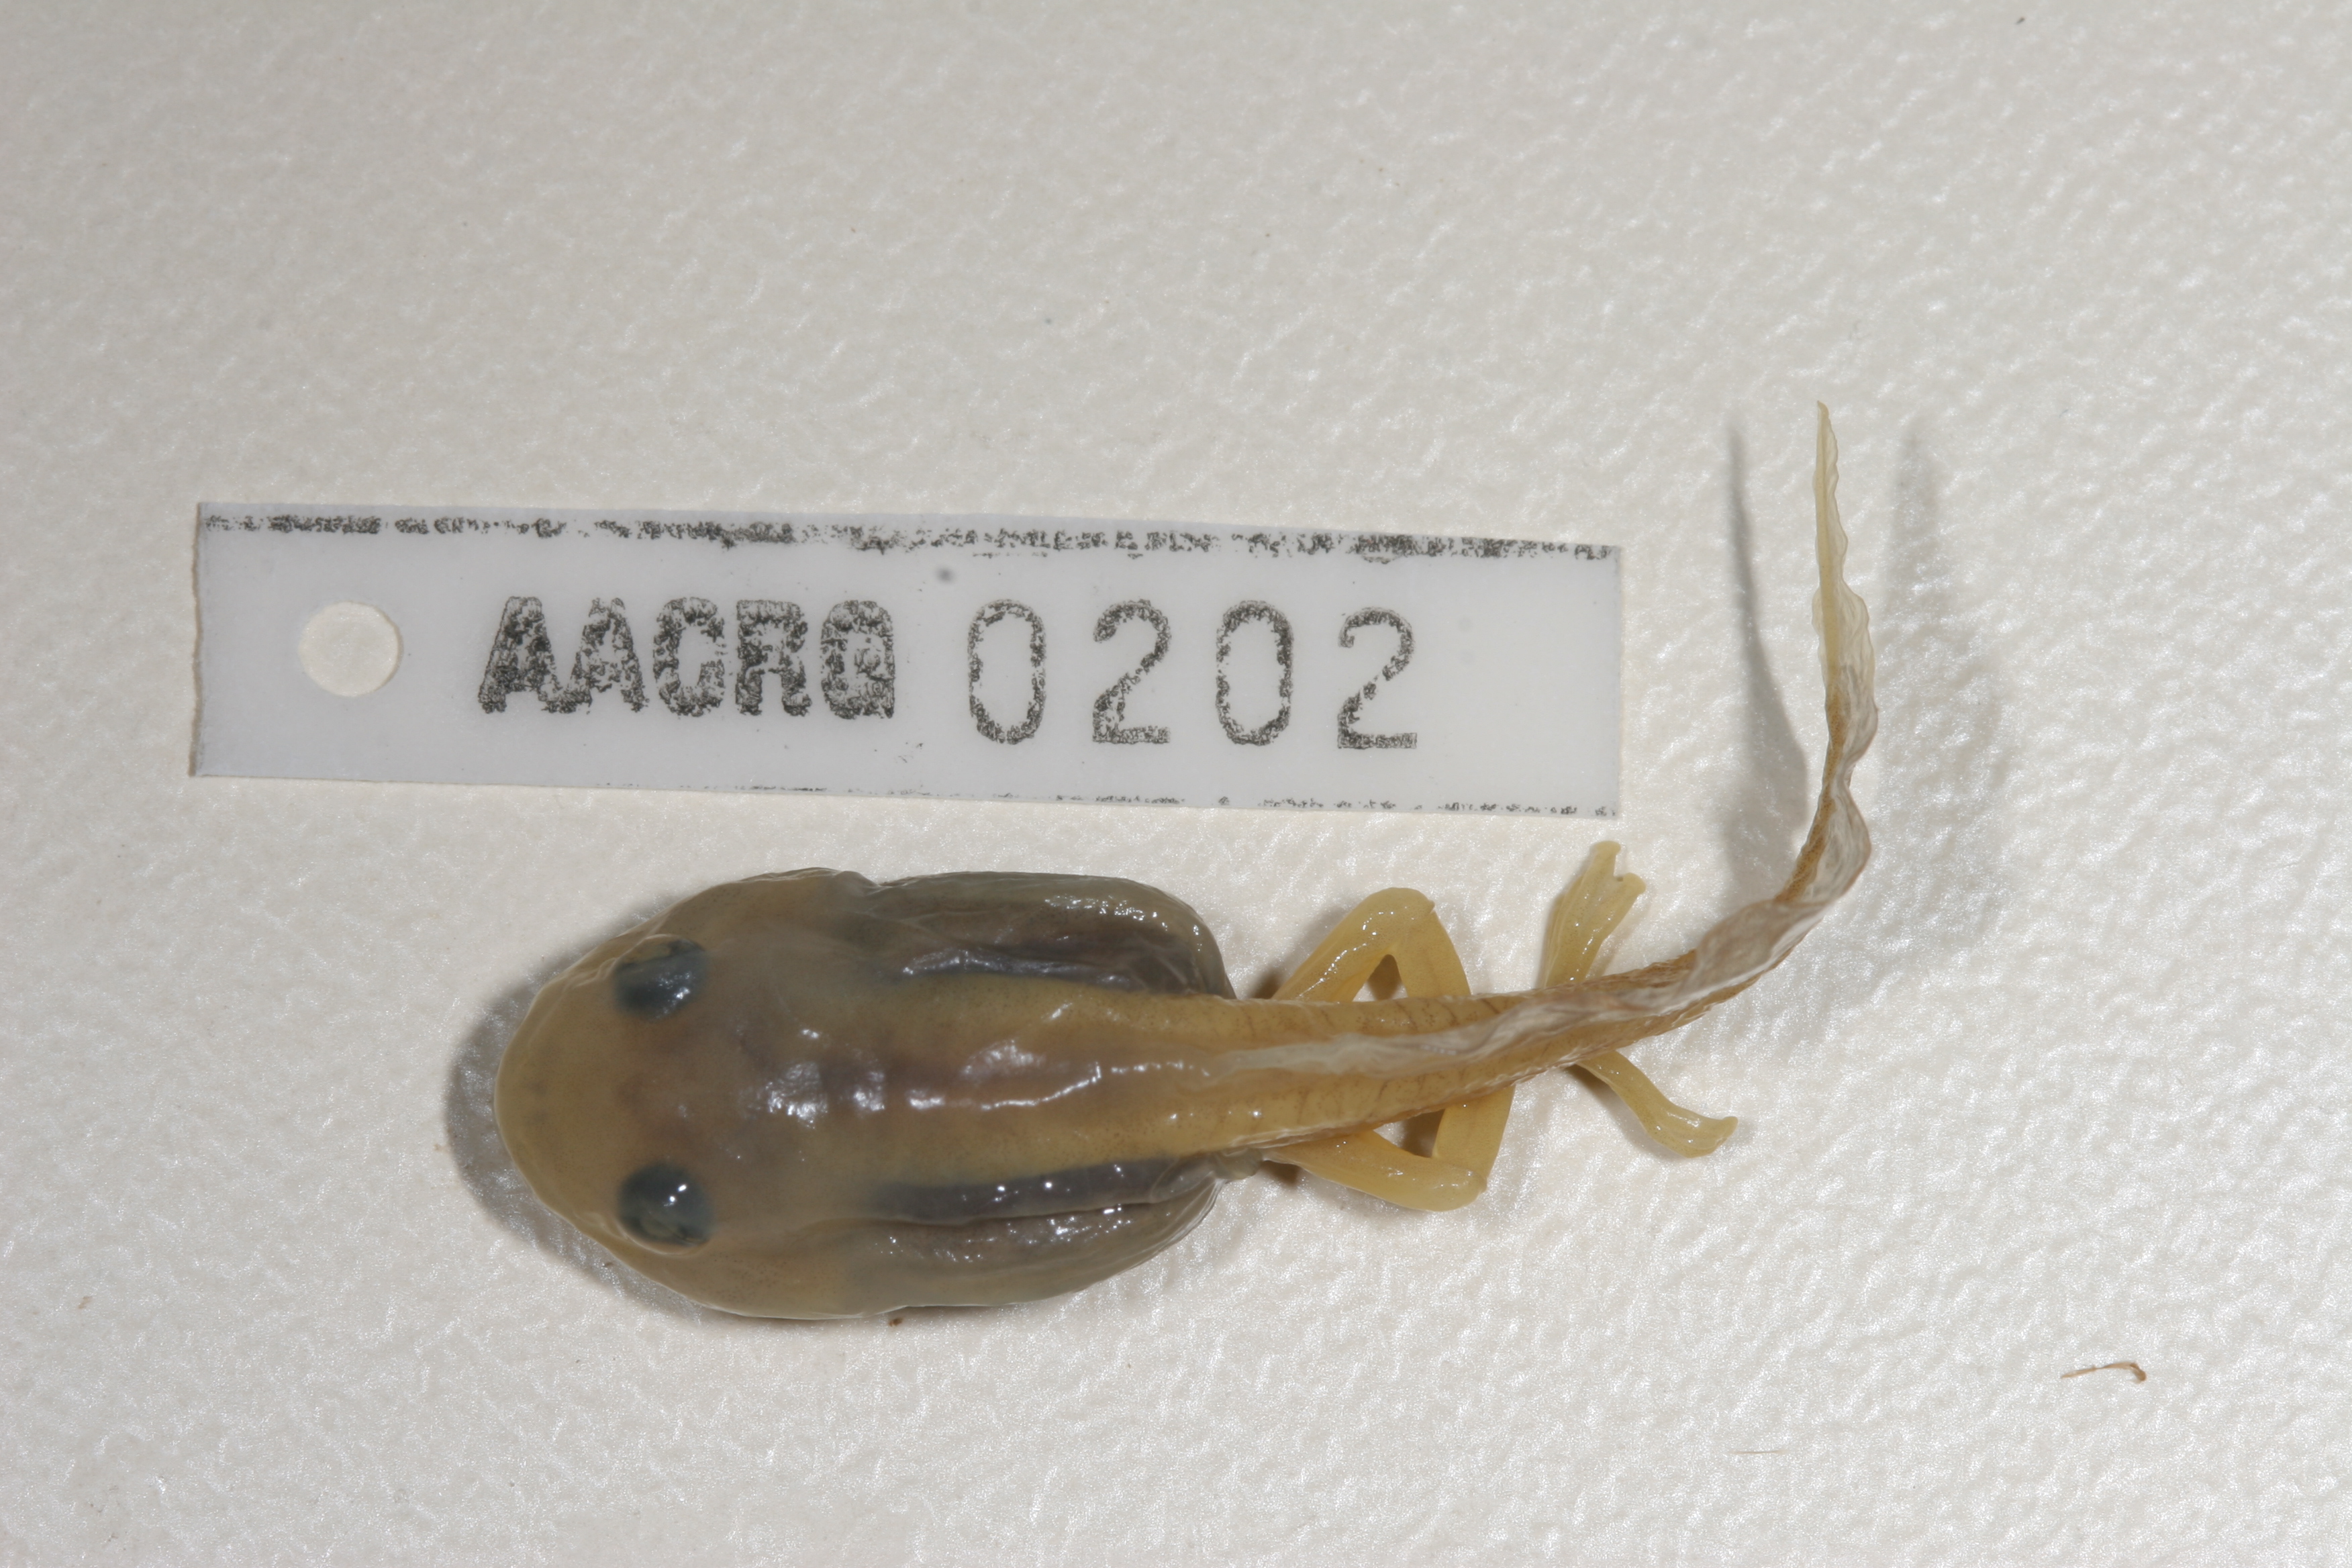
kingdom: Animalia
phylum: Chordata
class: Amphibia
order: Anura
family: Rhacophoridae
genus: Chiromantis
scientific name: Chiromantis xerampelina
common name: African gray treefrog
